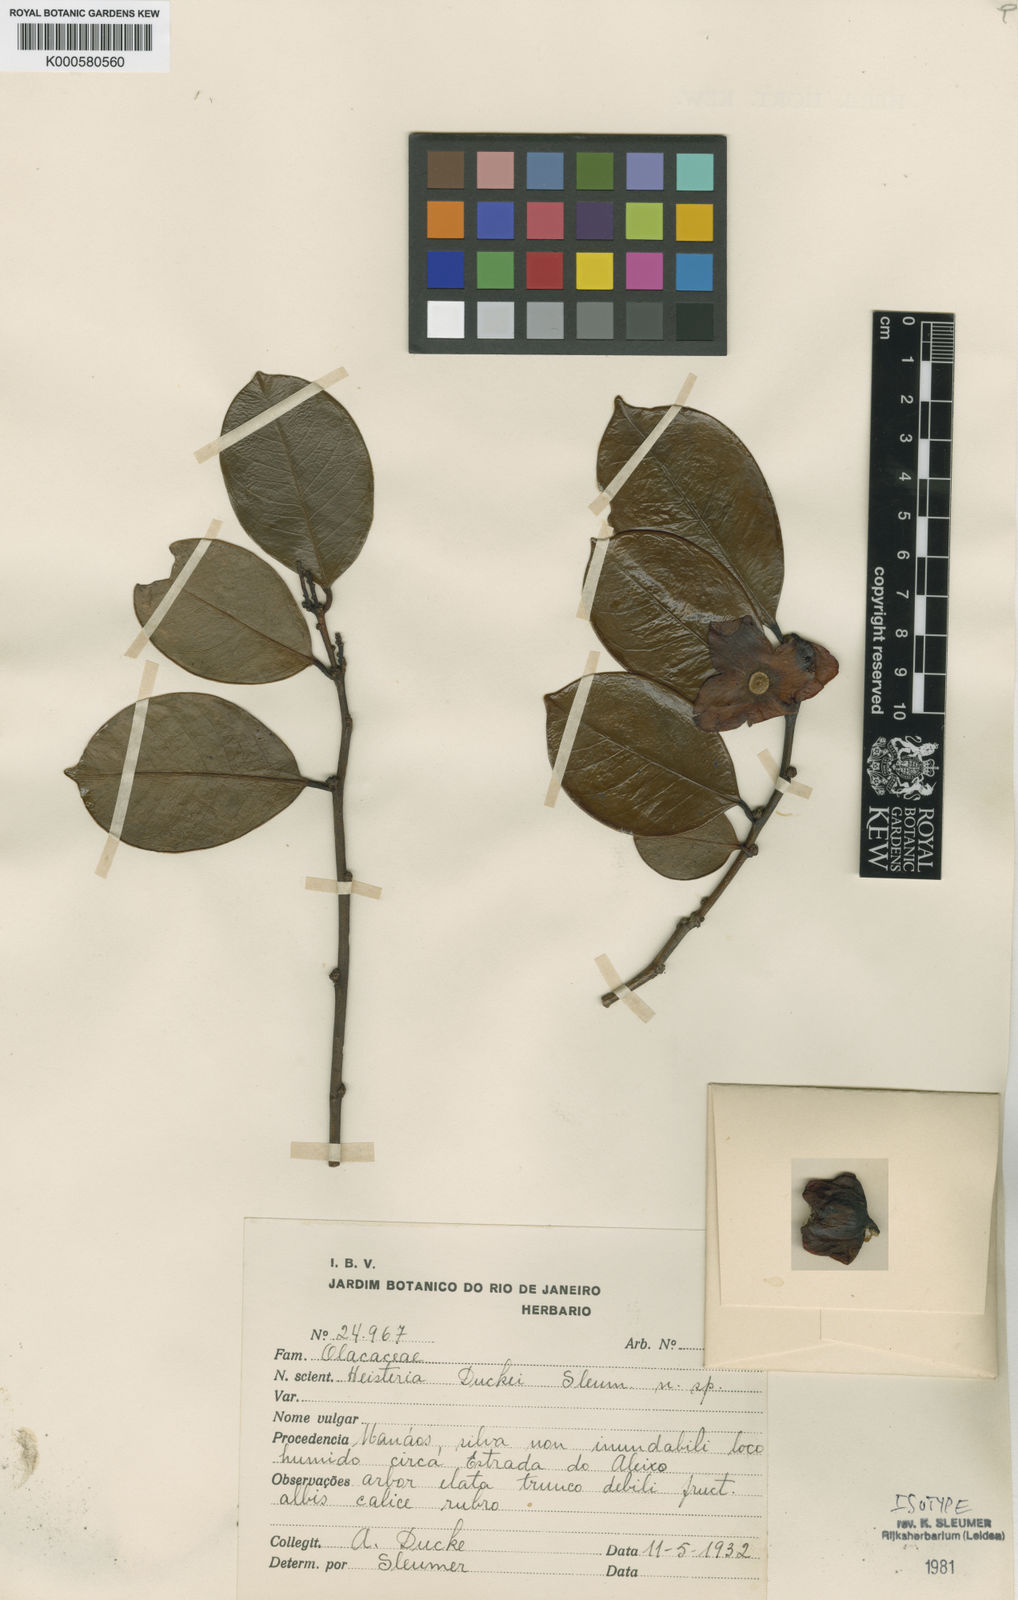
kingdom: Plantae
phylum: Tracheophyta
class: Magnoliopsida
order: Santalales
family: Erythropalaceae
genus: Heisteria
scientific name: Heisteria duckei
